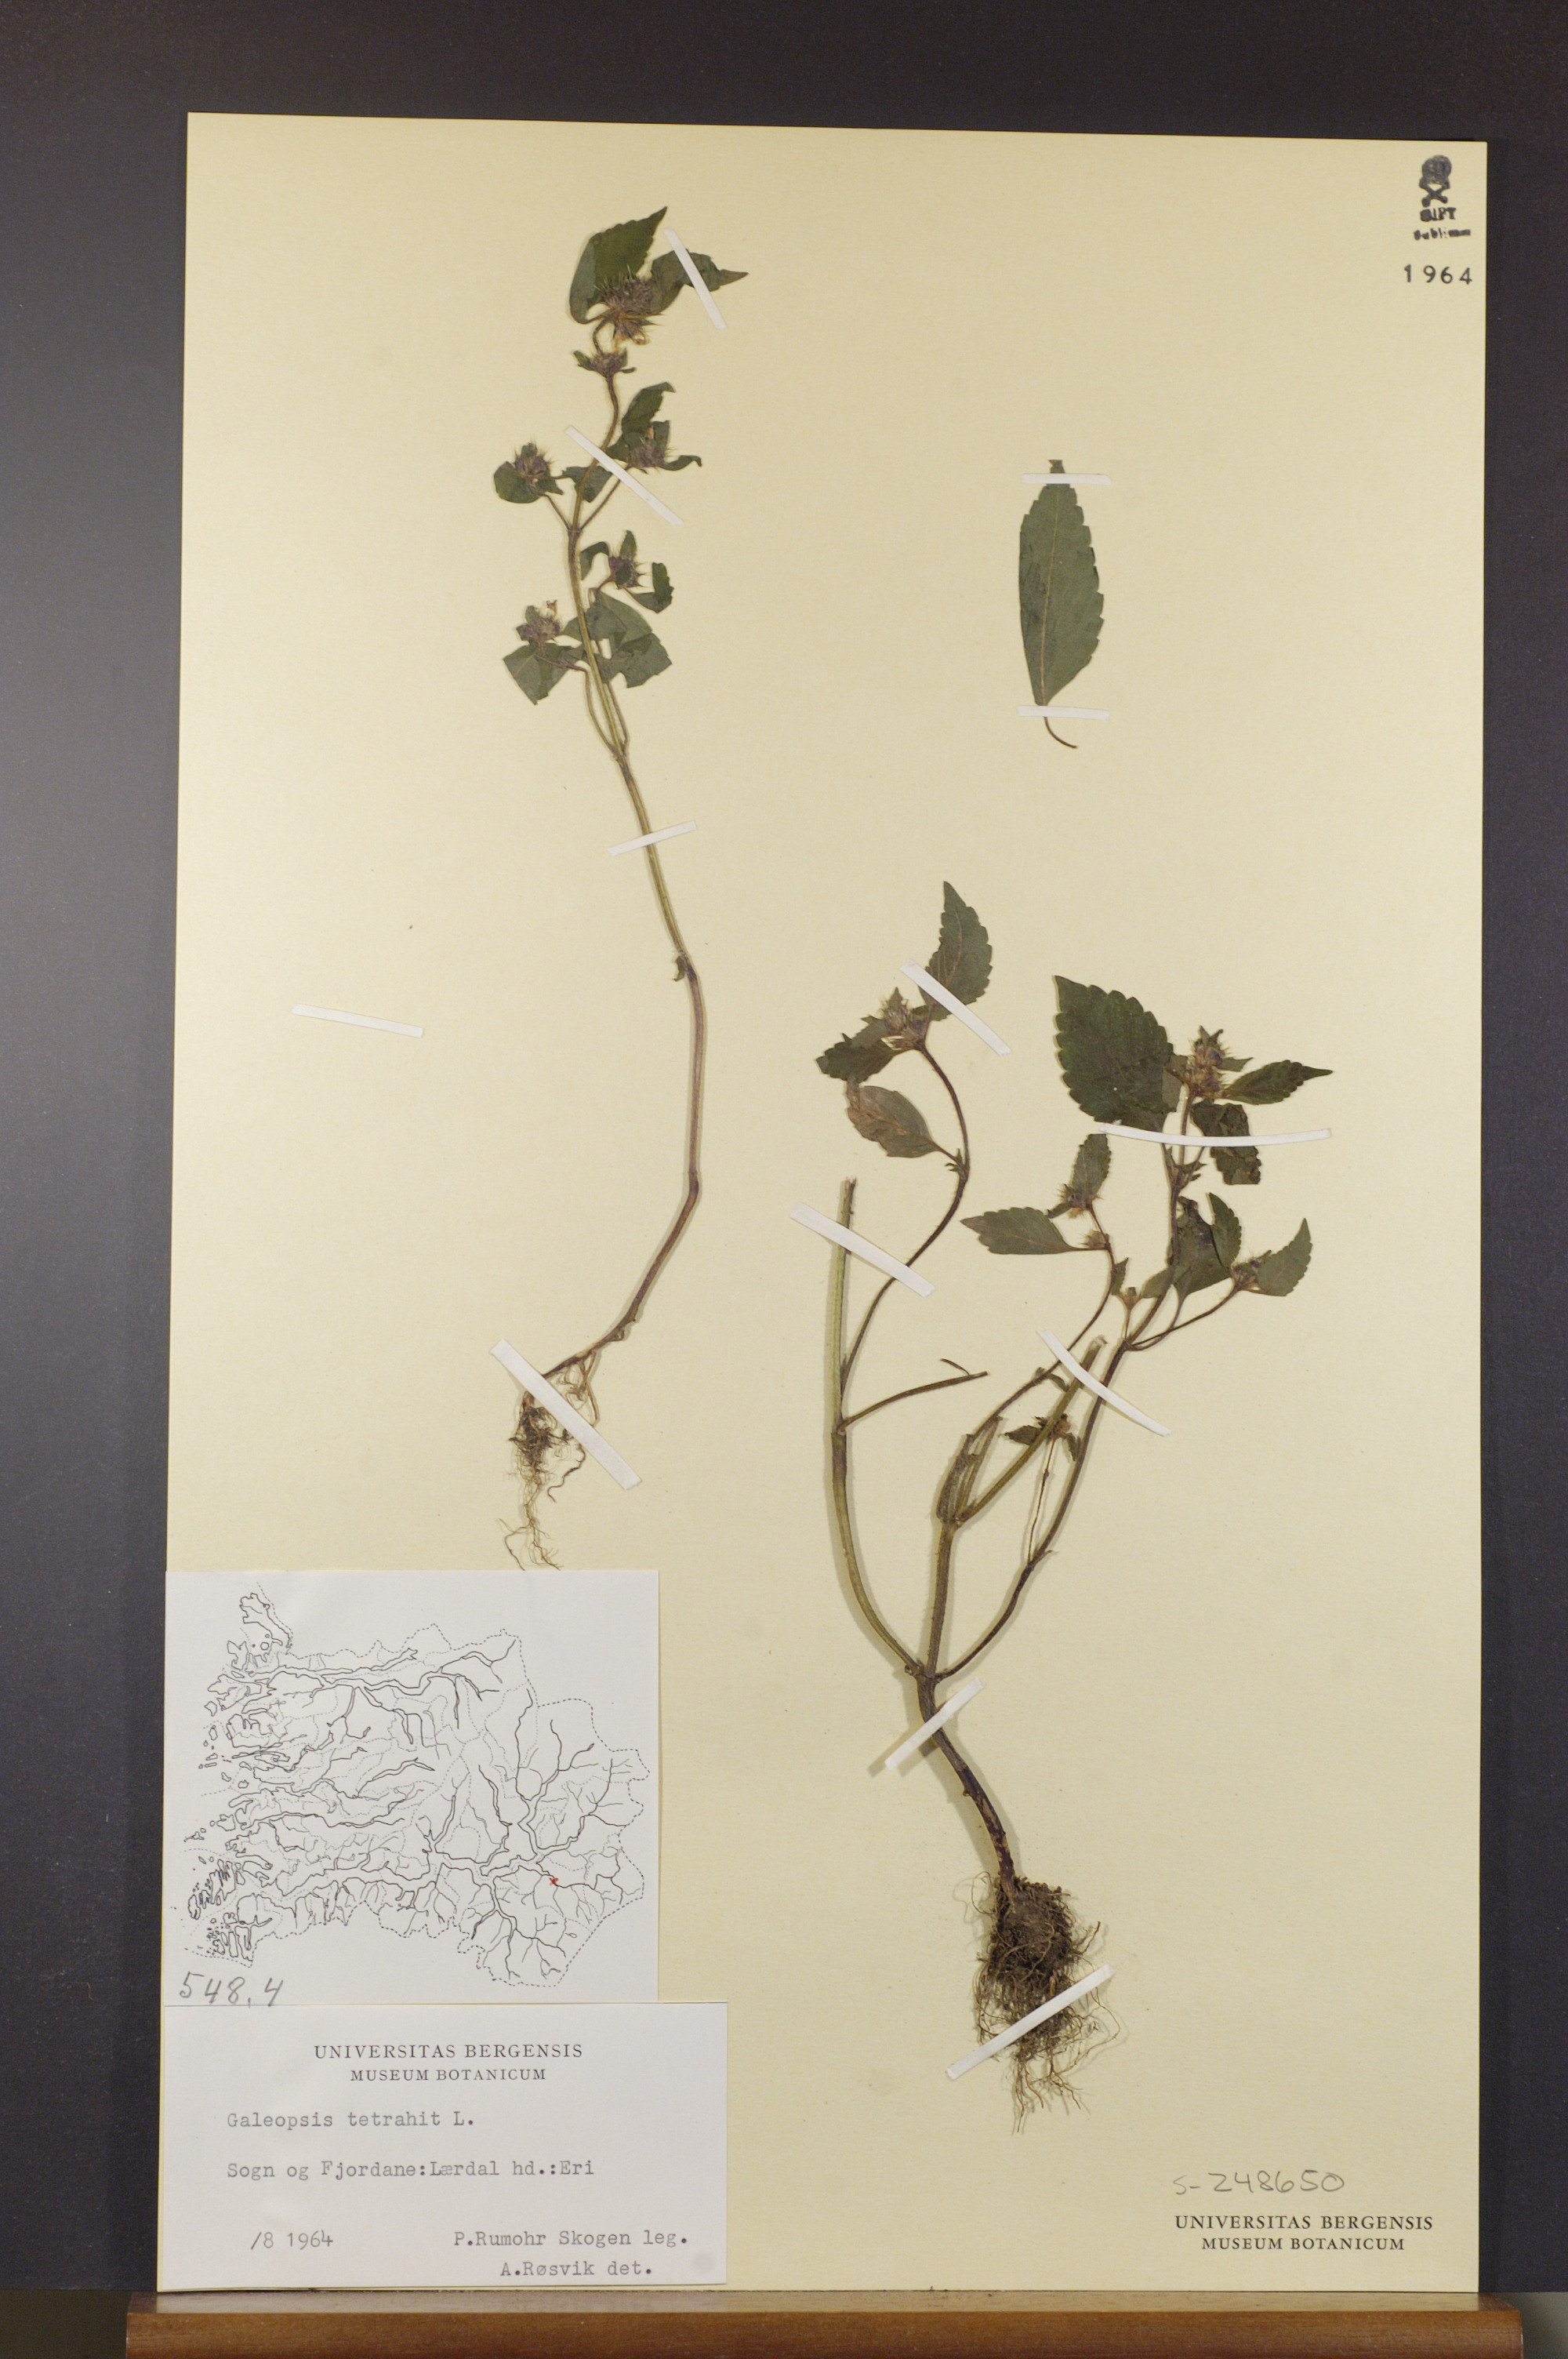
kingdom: Plantae
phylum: Tracheophyta
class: Magnoliopsida
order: Lamiales
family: Lamiaceae
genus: Galeopsis
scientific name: Galeopsis tetrahit
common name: Common hemp-nettle
